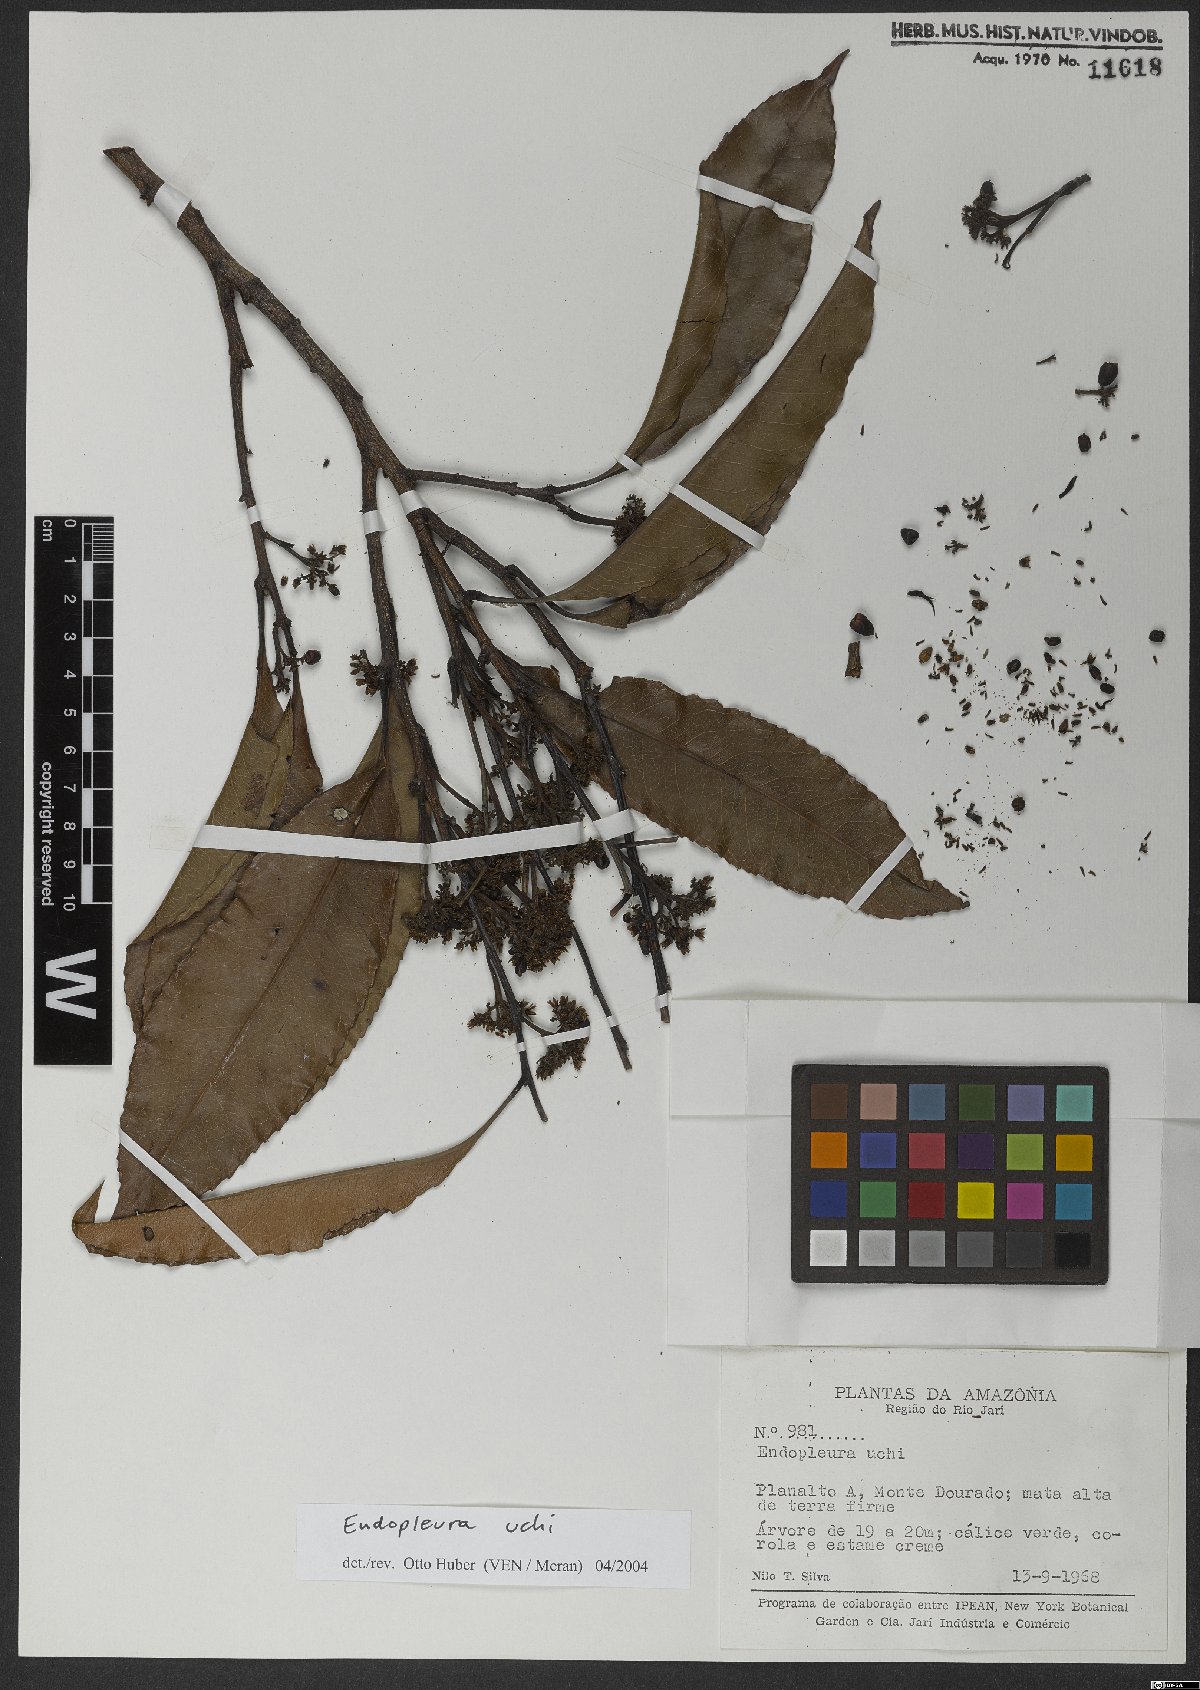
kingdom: Plantae
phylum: Tracheophyta
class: Magnoliopsida
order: Malpighiales
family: Humiriaceae
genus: Endopleura
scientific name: Endopleura uchi
